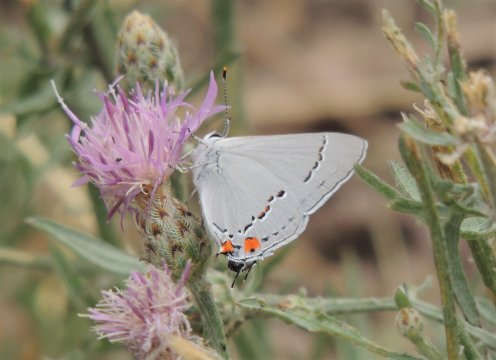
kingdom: Animalia
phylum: Arthropoda
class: Insecta
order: Lepidoptera
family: Lycaenidae
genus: Strymon
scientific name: Strymon melinus
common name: Gray Hairstreak
